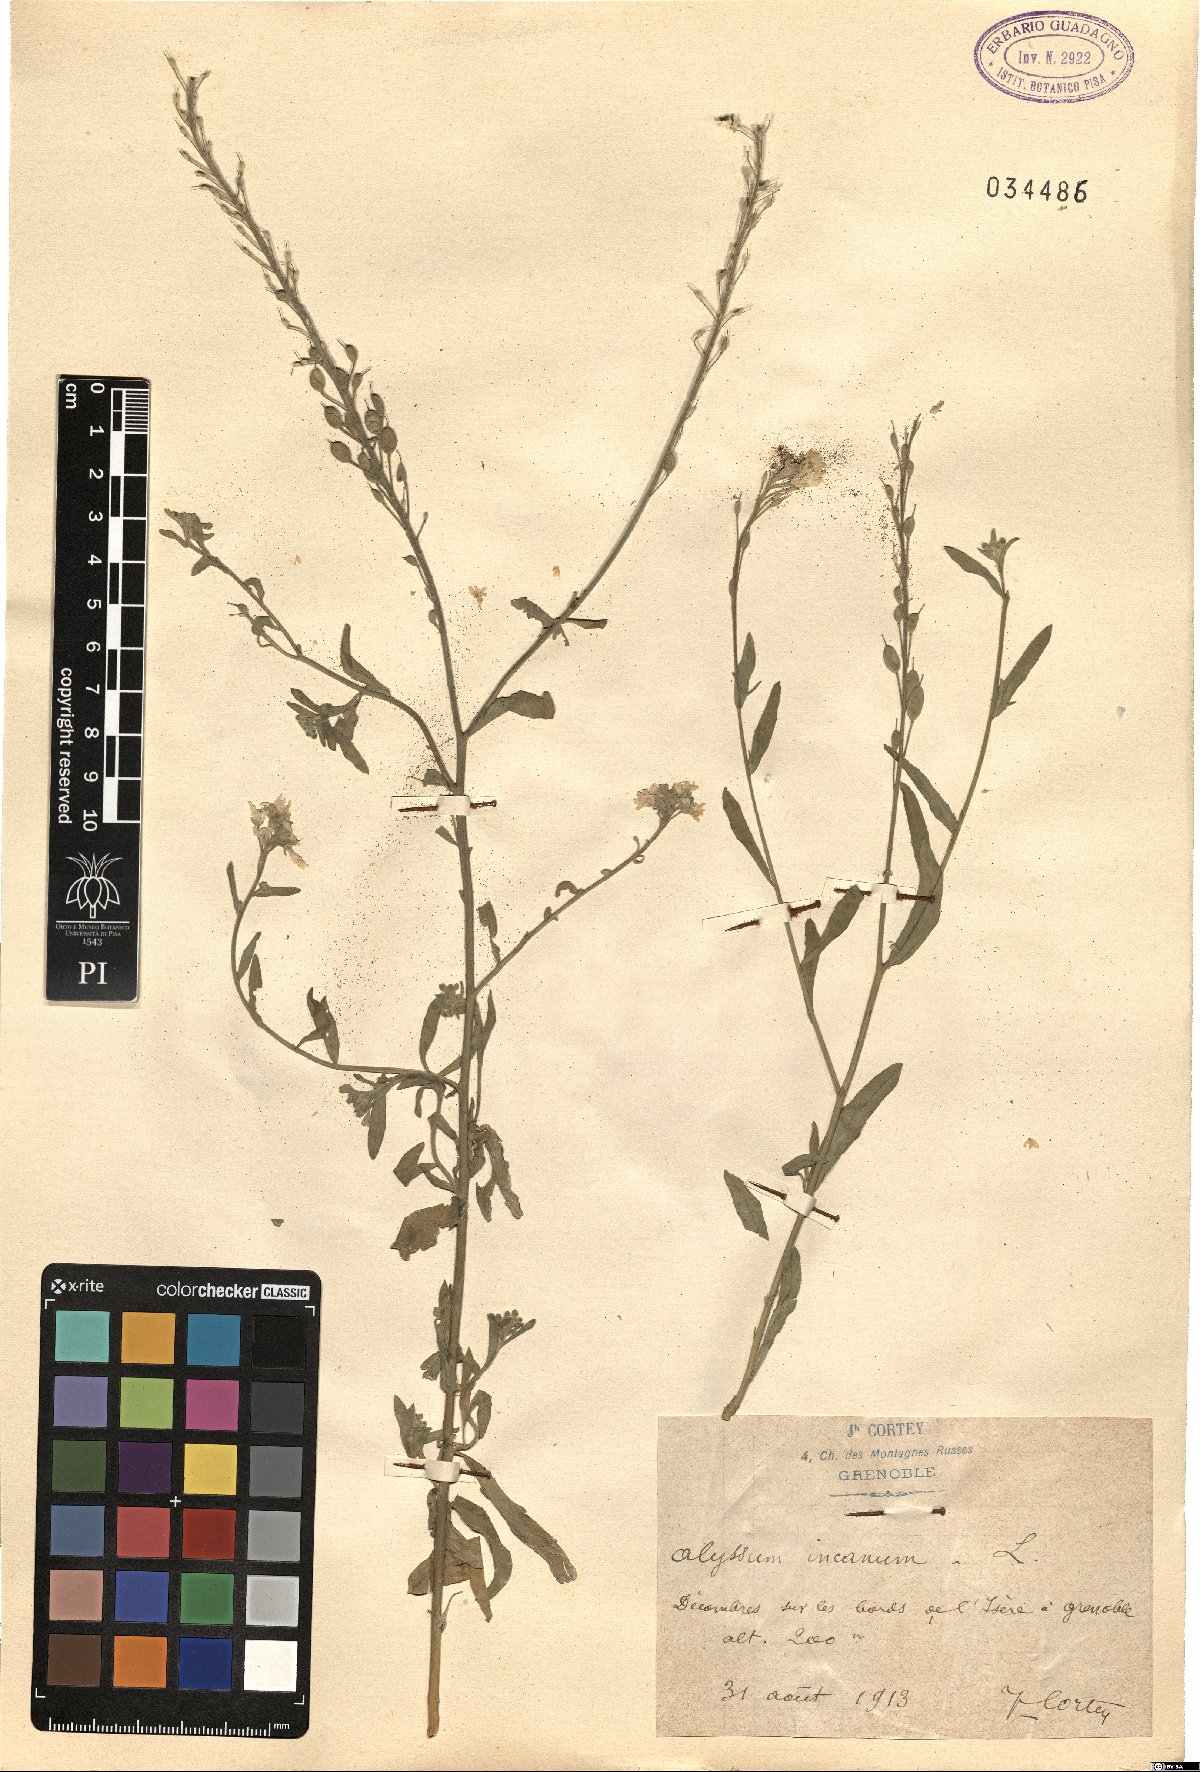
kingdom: Plantae
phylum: Tracheophyta
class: Magnoliopsida
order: Brassicales
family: Brassicaceae
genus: Berteroa
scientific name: Berteroa incana
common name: Hoary alison
